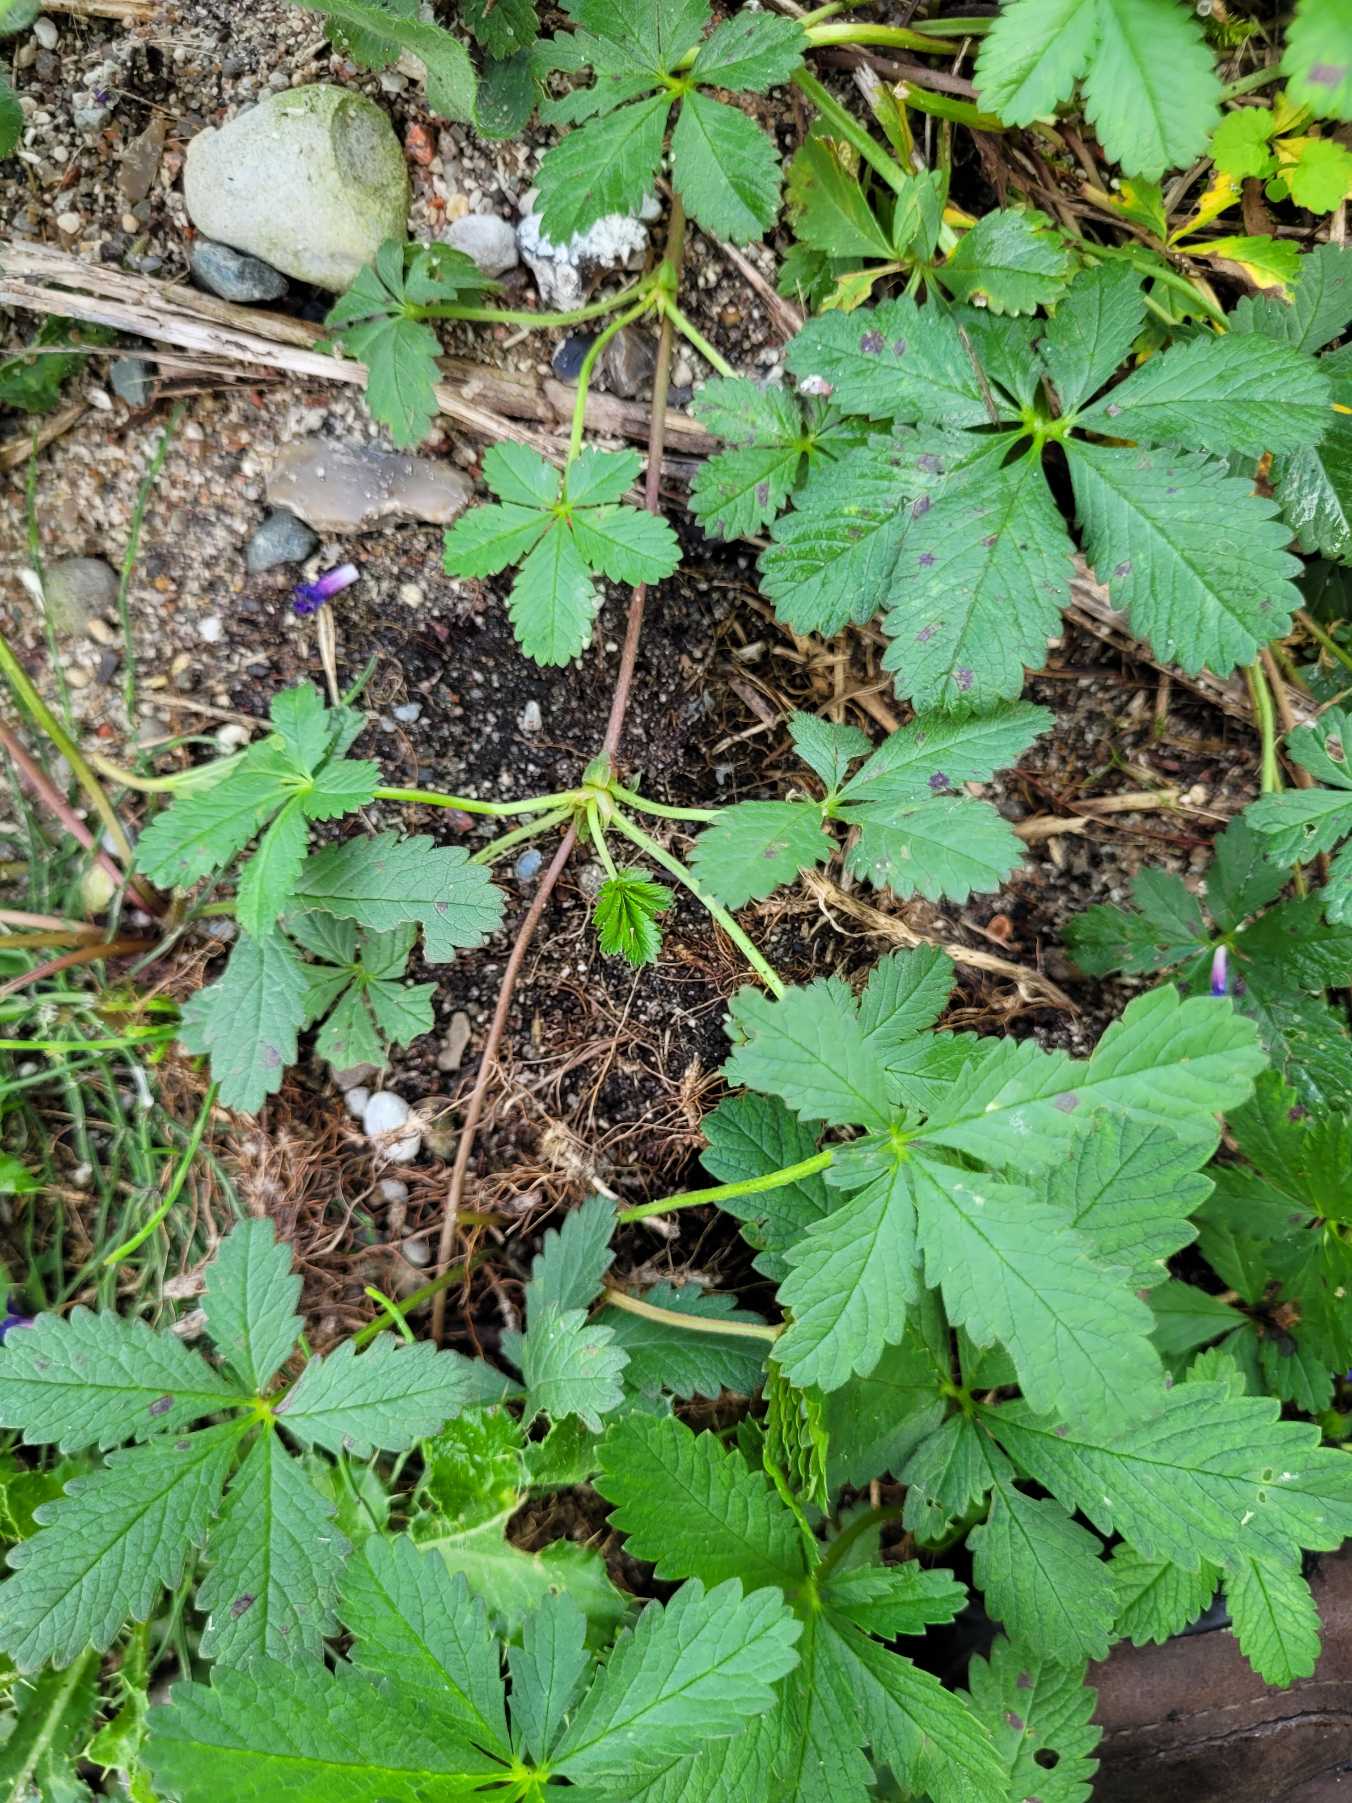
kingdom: Plantae
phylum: Tracheophyta
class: Magnoliopsida
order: Rosales
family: Rosaceae
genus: Potentilla
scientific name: Potentilla reptans
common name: Krybende potentil
